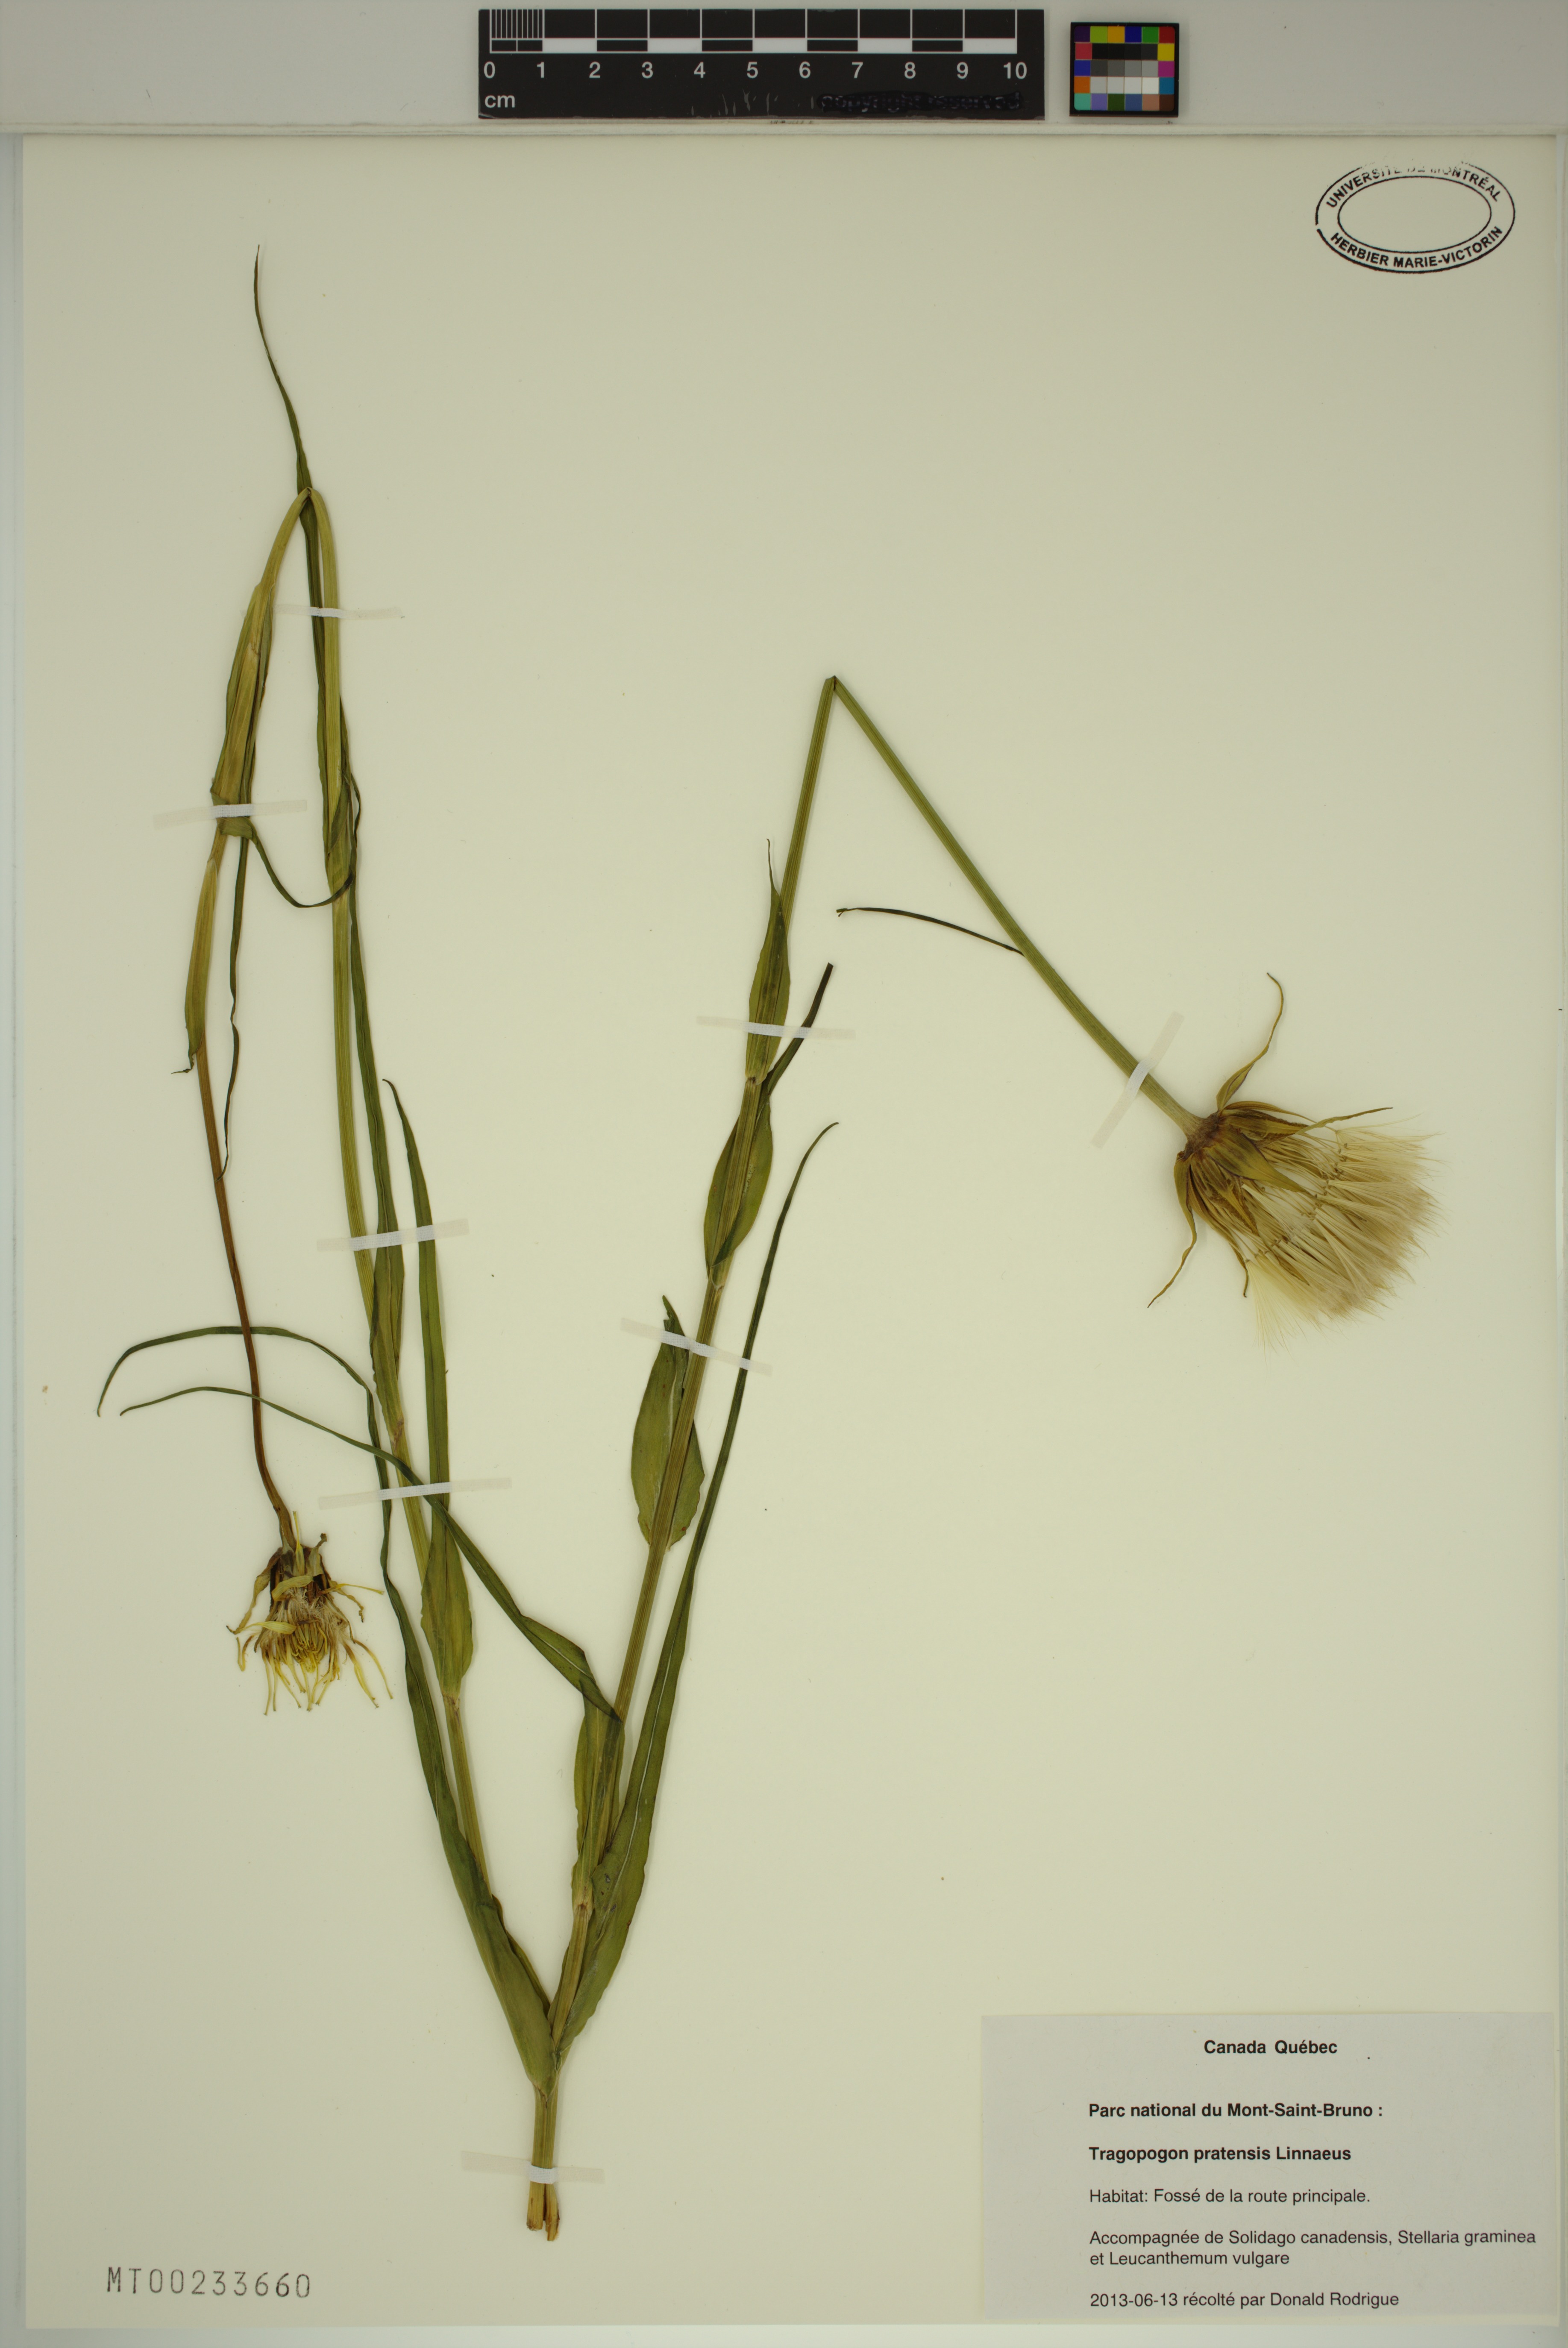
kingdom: Plantae
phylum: Tracheophyta
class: Magnoliopsida
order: Asterales
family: Asteraceae
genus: Tragopogon
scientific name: Tragopogon pratensis
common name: Goat's-beard
